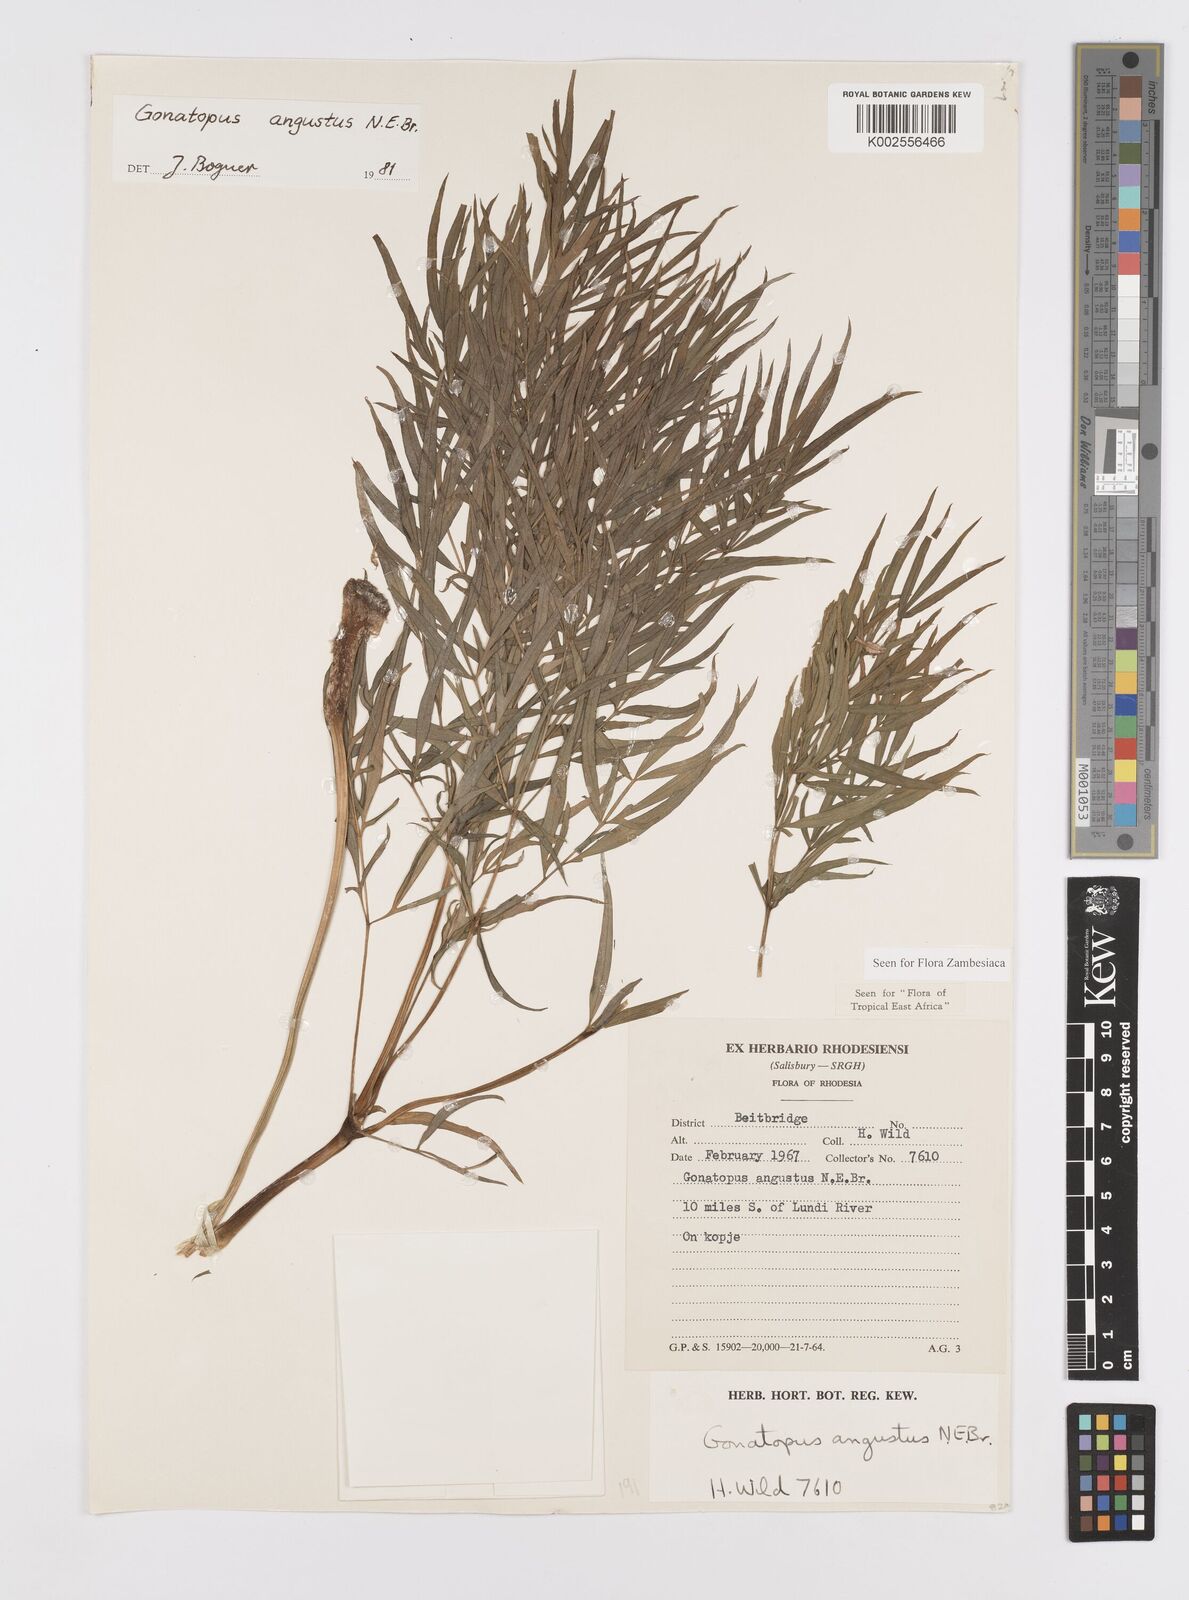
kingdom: Plantae
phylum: Tracheophyta
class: Liliopsida
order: Alismatales
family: Araceae
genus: Gonatopus
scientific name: Gonatopus angustus
